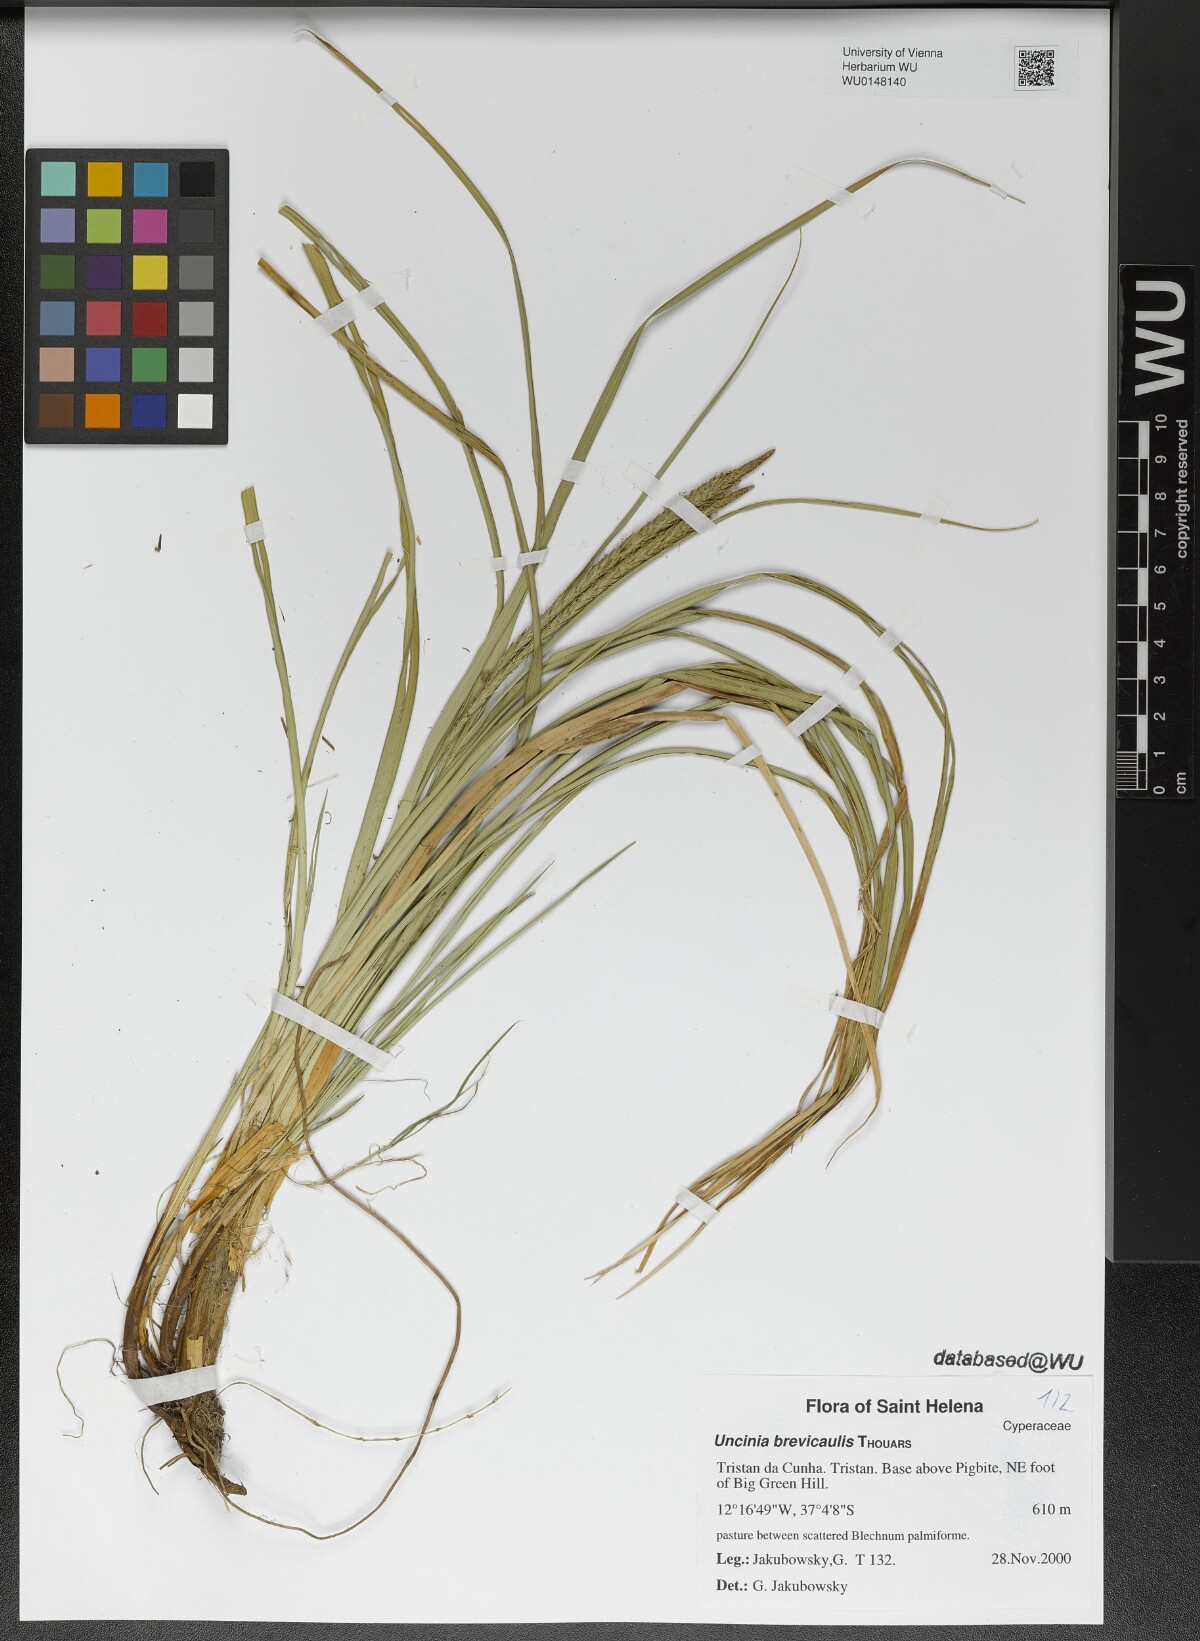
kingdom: Plantae
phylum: Tracheophyta
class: Liliopsida
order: Poales
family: Cyperaceae
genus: Carex
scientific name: Carex Uncinia brevicaulis
